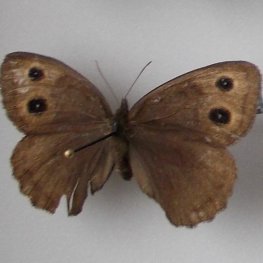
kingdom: Animalia
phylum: Arthropoda
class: Insecta
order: Lepidoptera
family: Nymphalidae
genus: Cercyonis
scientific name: Cercyonis pegala
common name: Common Wood-Nymph
